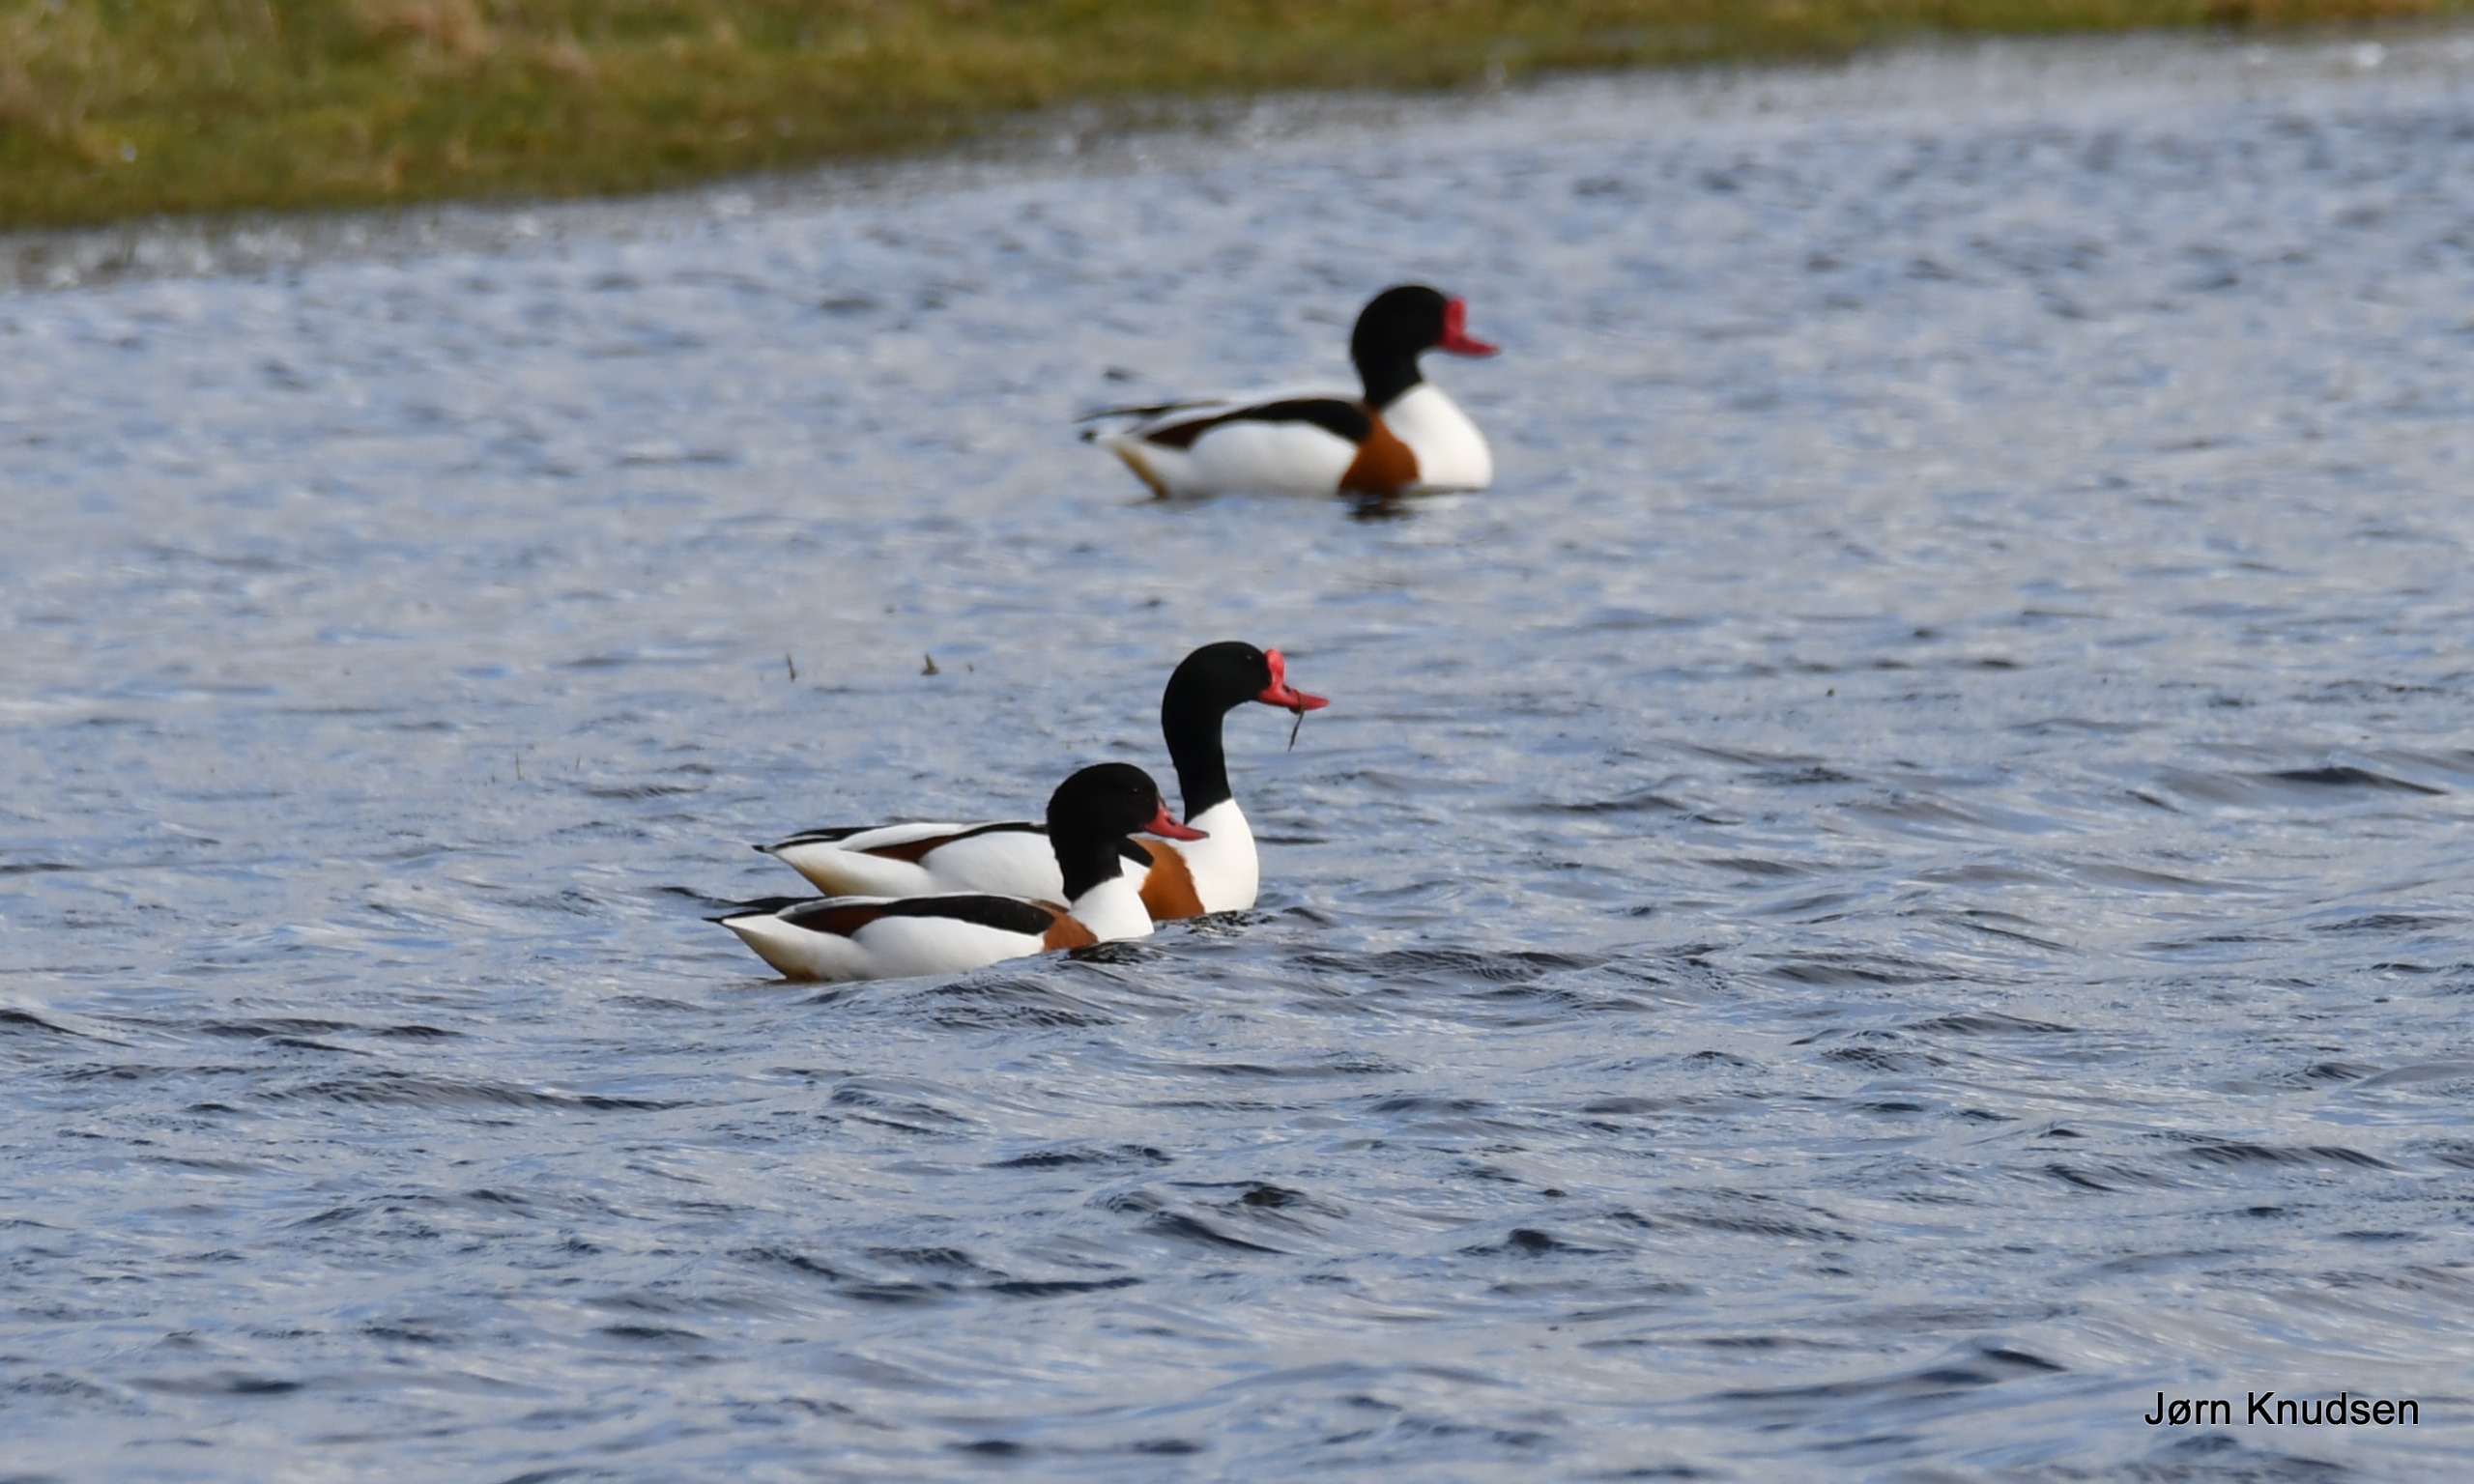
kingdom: Animalia
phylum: Chordata
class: Aves
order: Anseriformes
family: Anatidae
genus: Tadorna
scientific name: Tadorna tadorna
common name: Gravand
